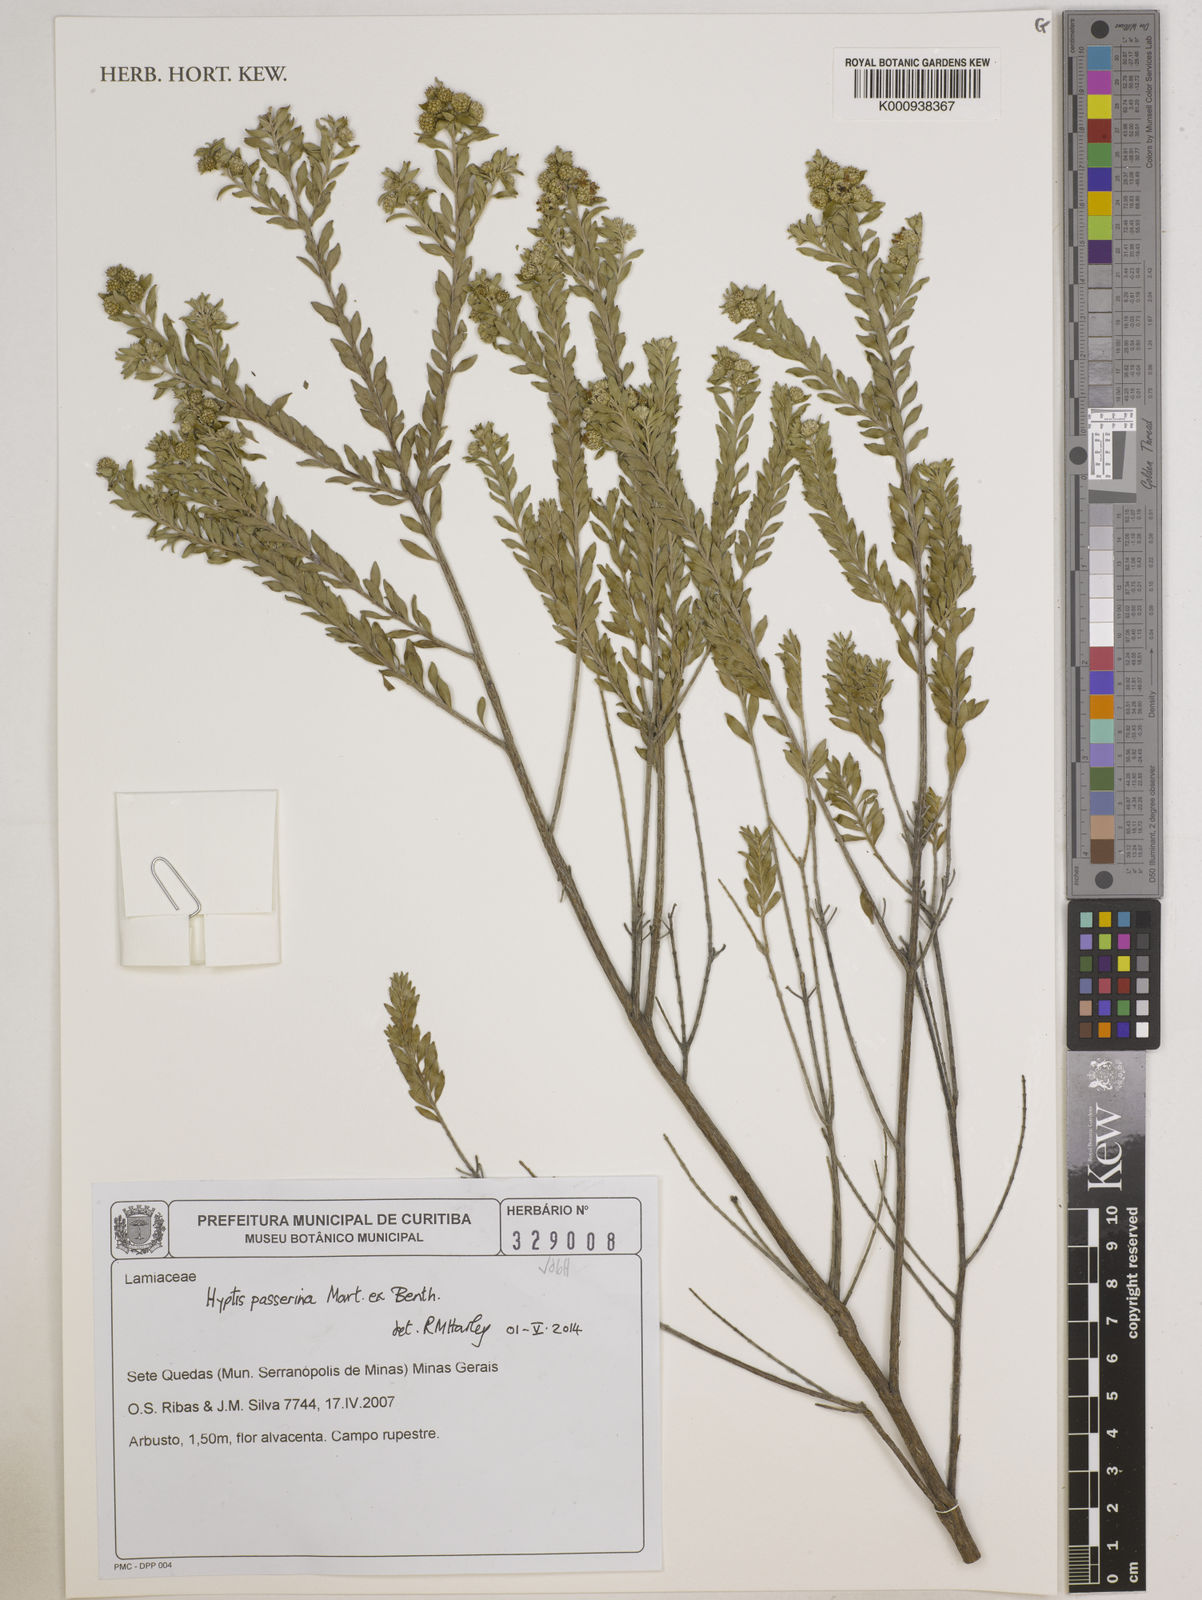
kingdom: Plantae
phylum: Tracheophyta
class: Magnoliopsida
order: Lamiales
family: Lamiaceae
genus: Hyptis
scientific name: Hyptis passerina
